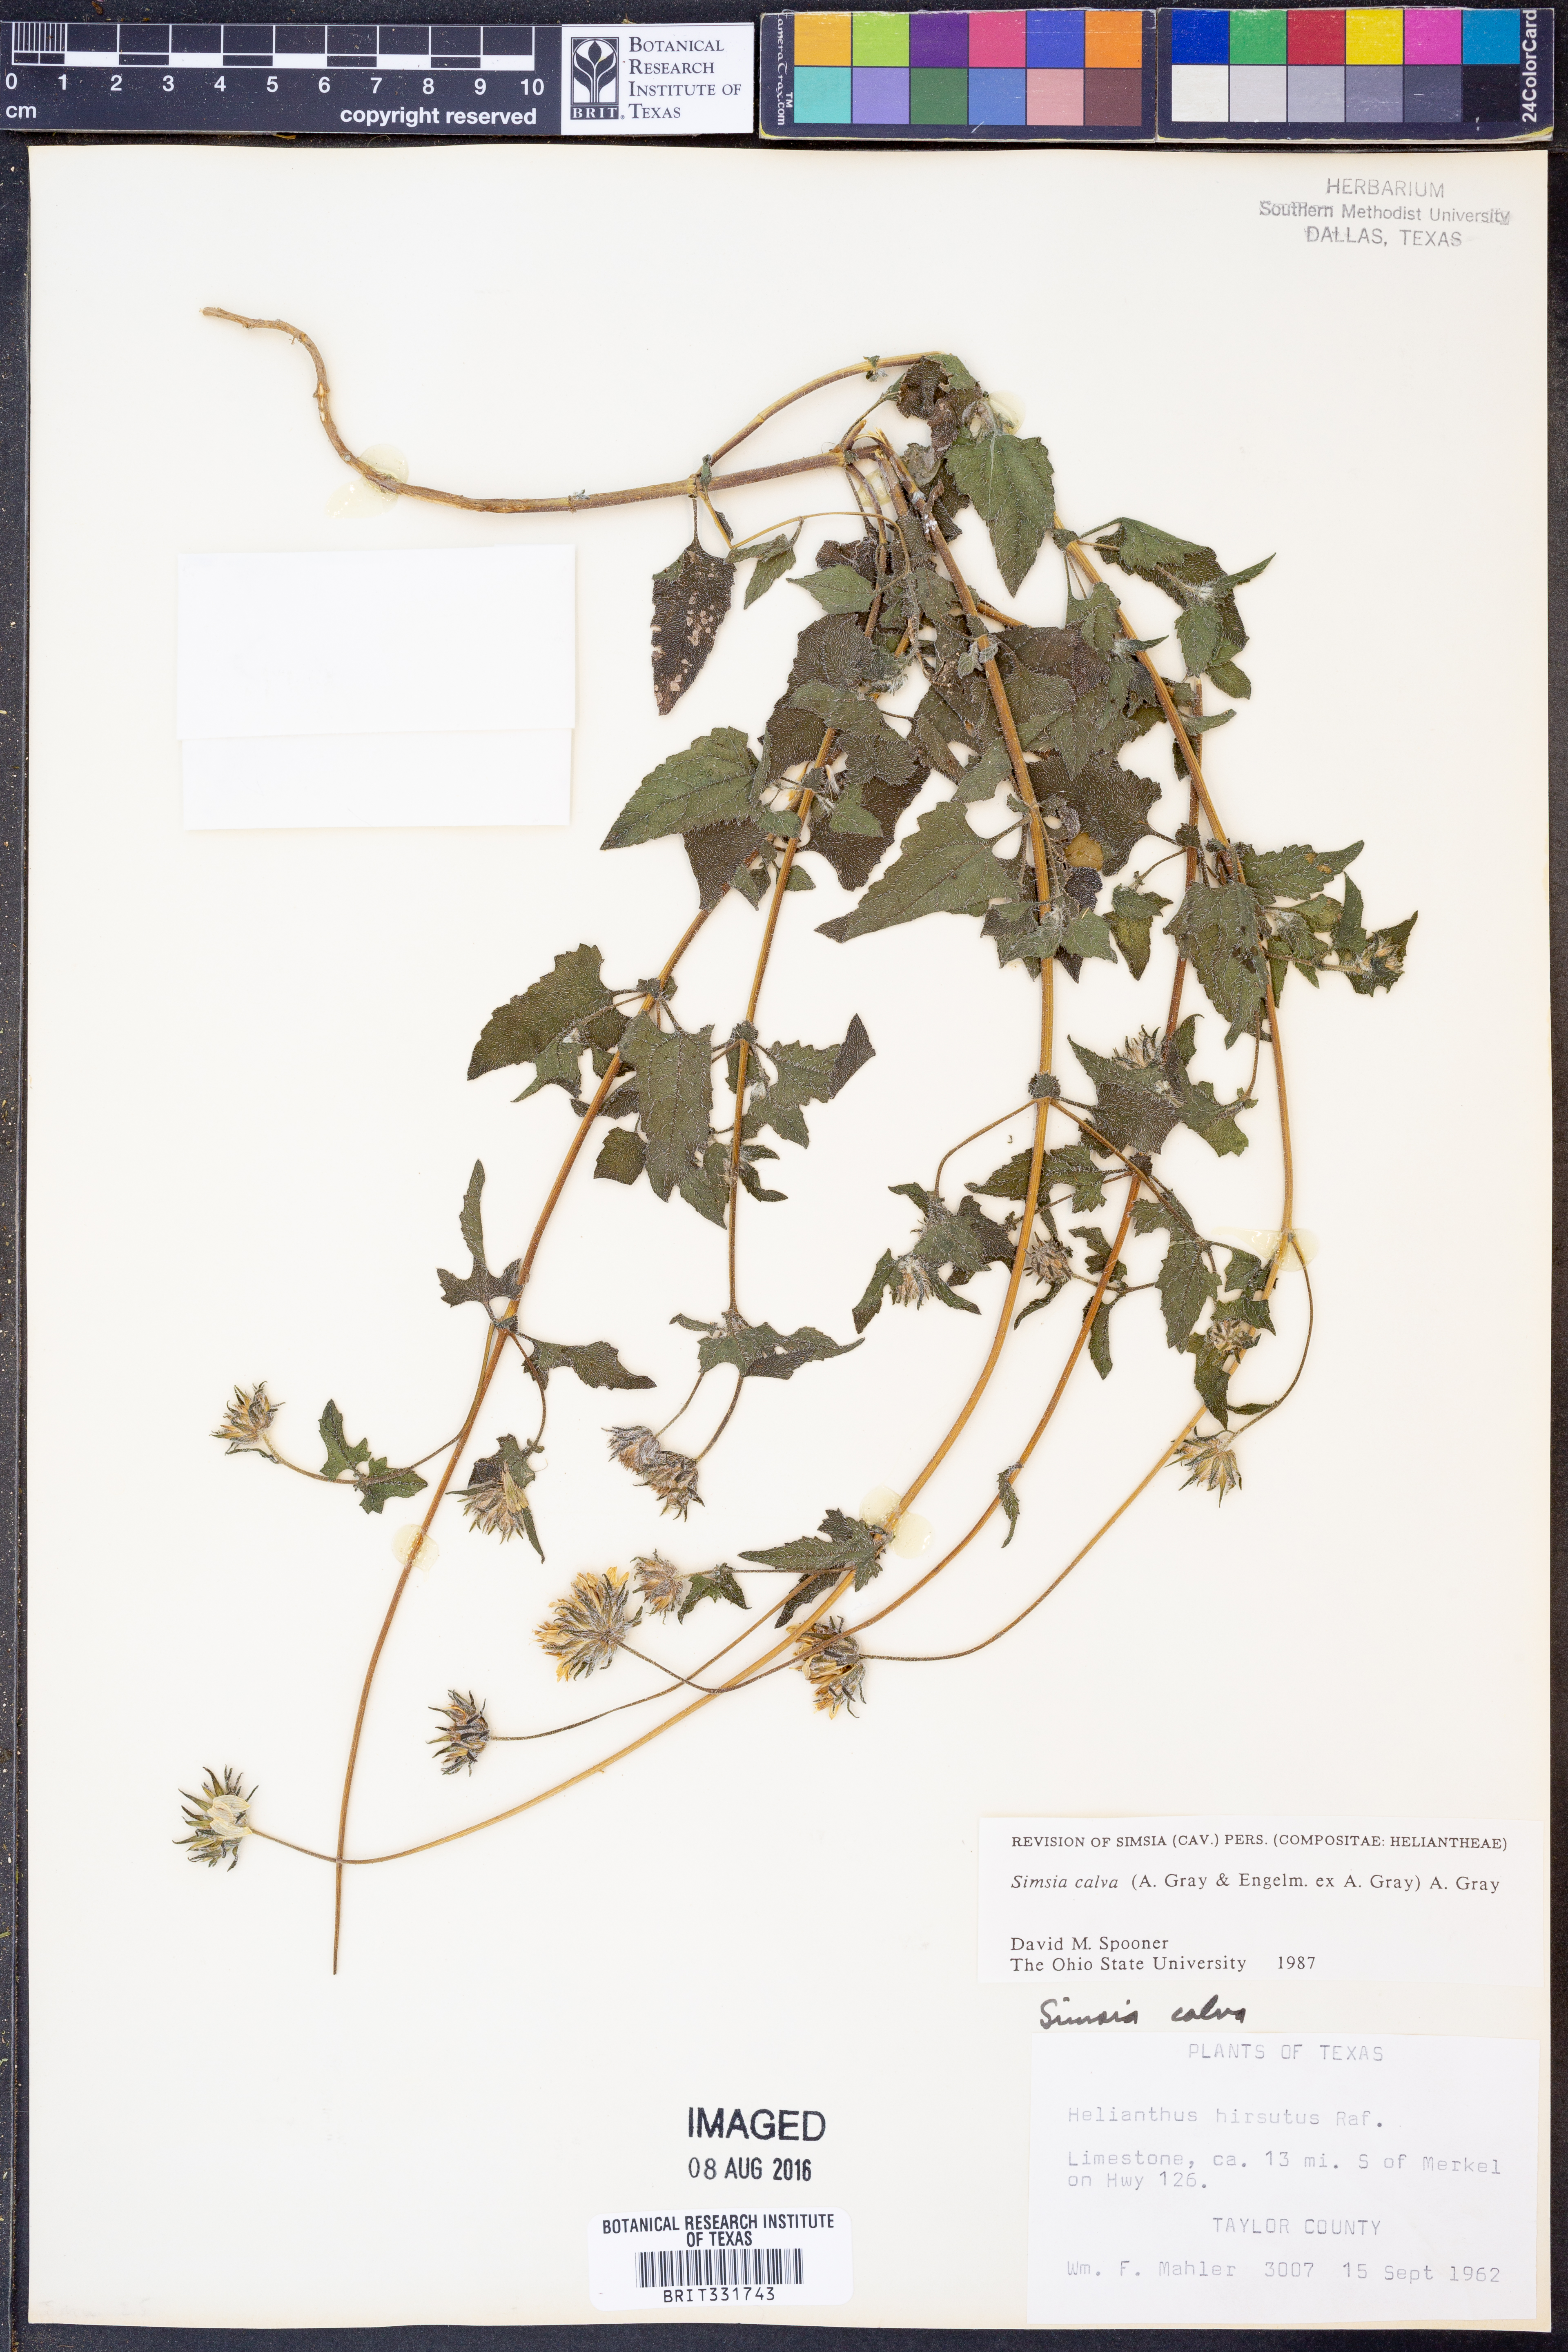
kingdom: Plantae
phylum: Tracheophyta
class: Magnoliopsida
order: Asterales
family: Asteraceae
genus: Simsia
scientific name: Simsia calva
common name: Awnless bush-sunflower
